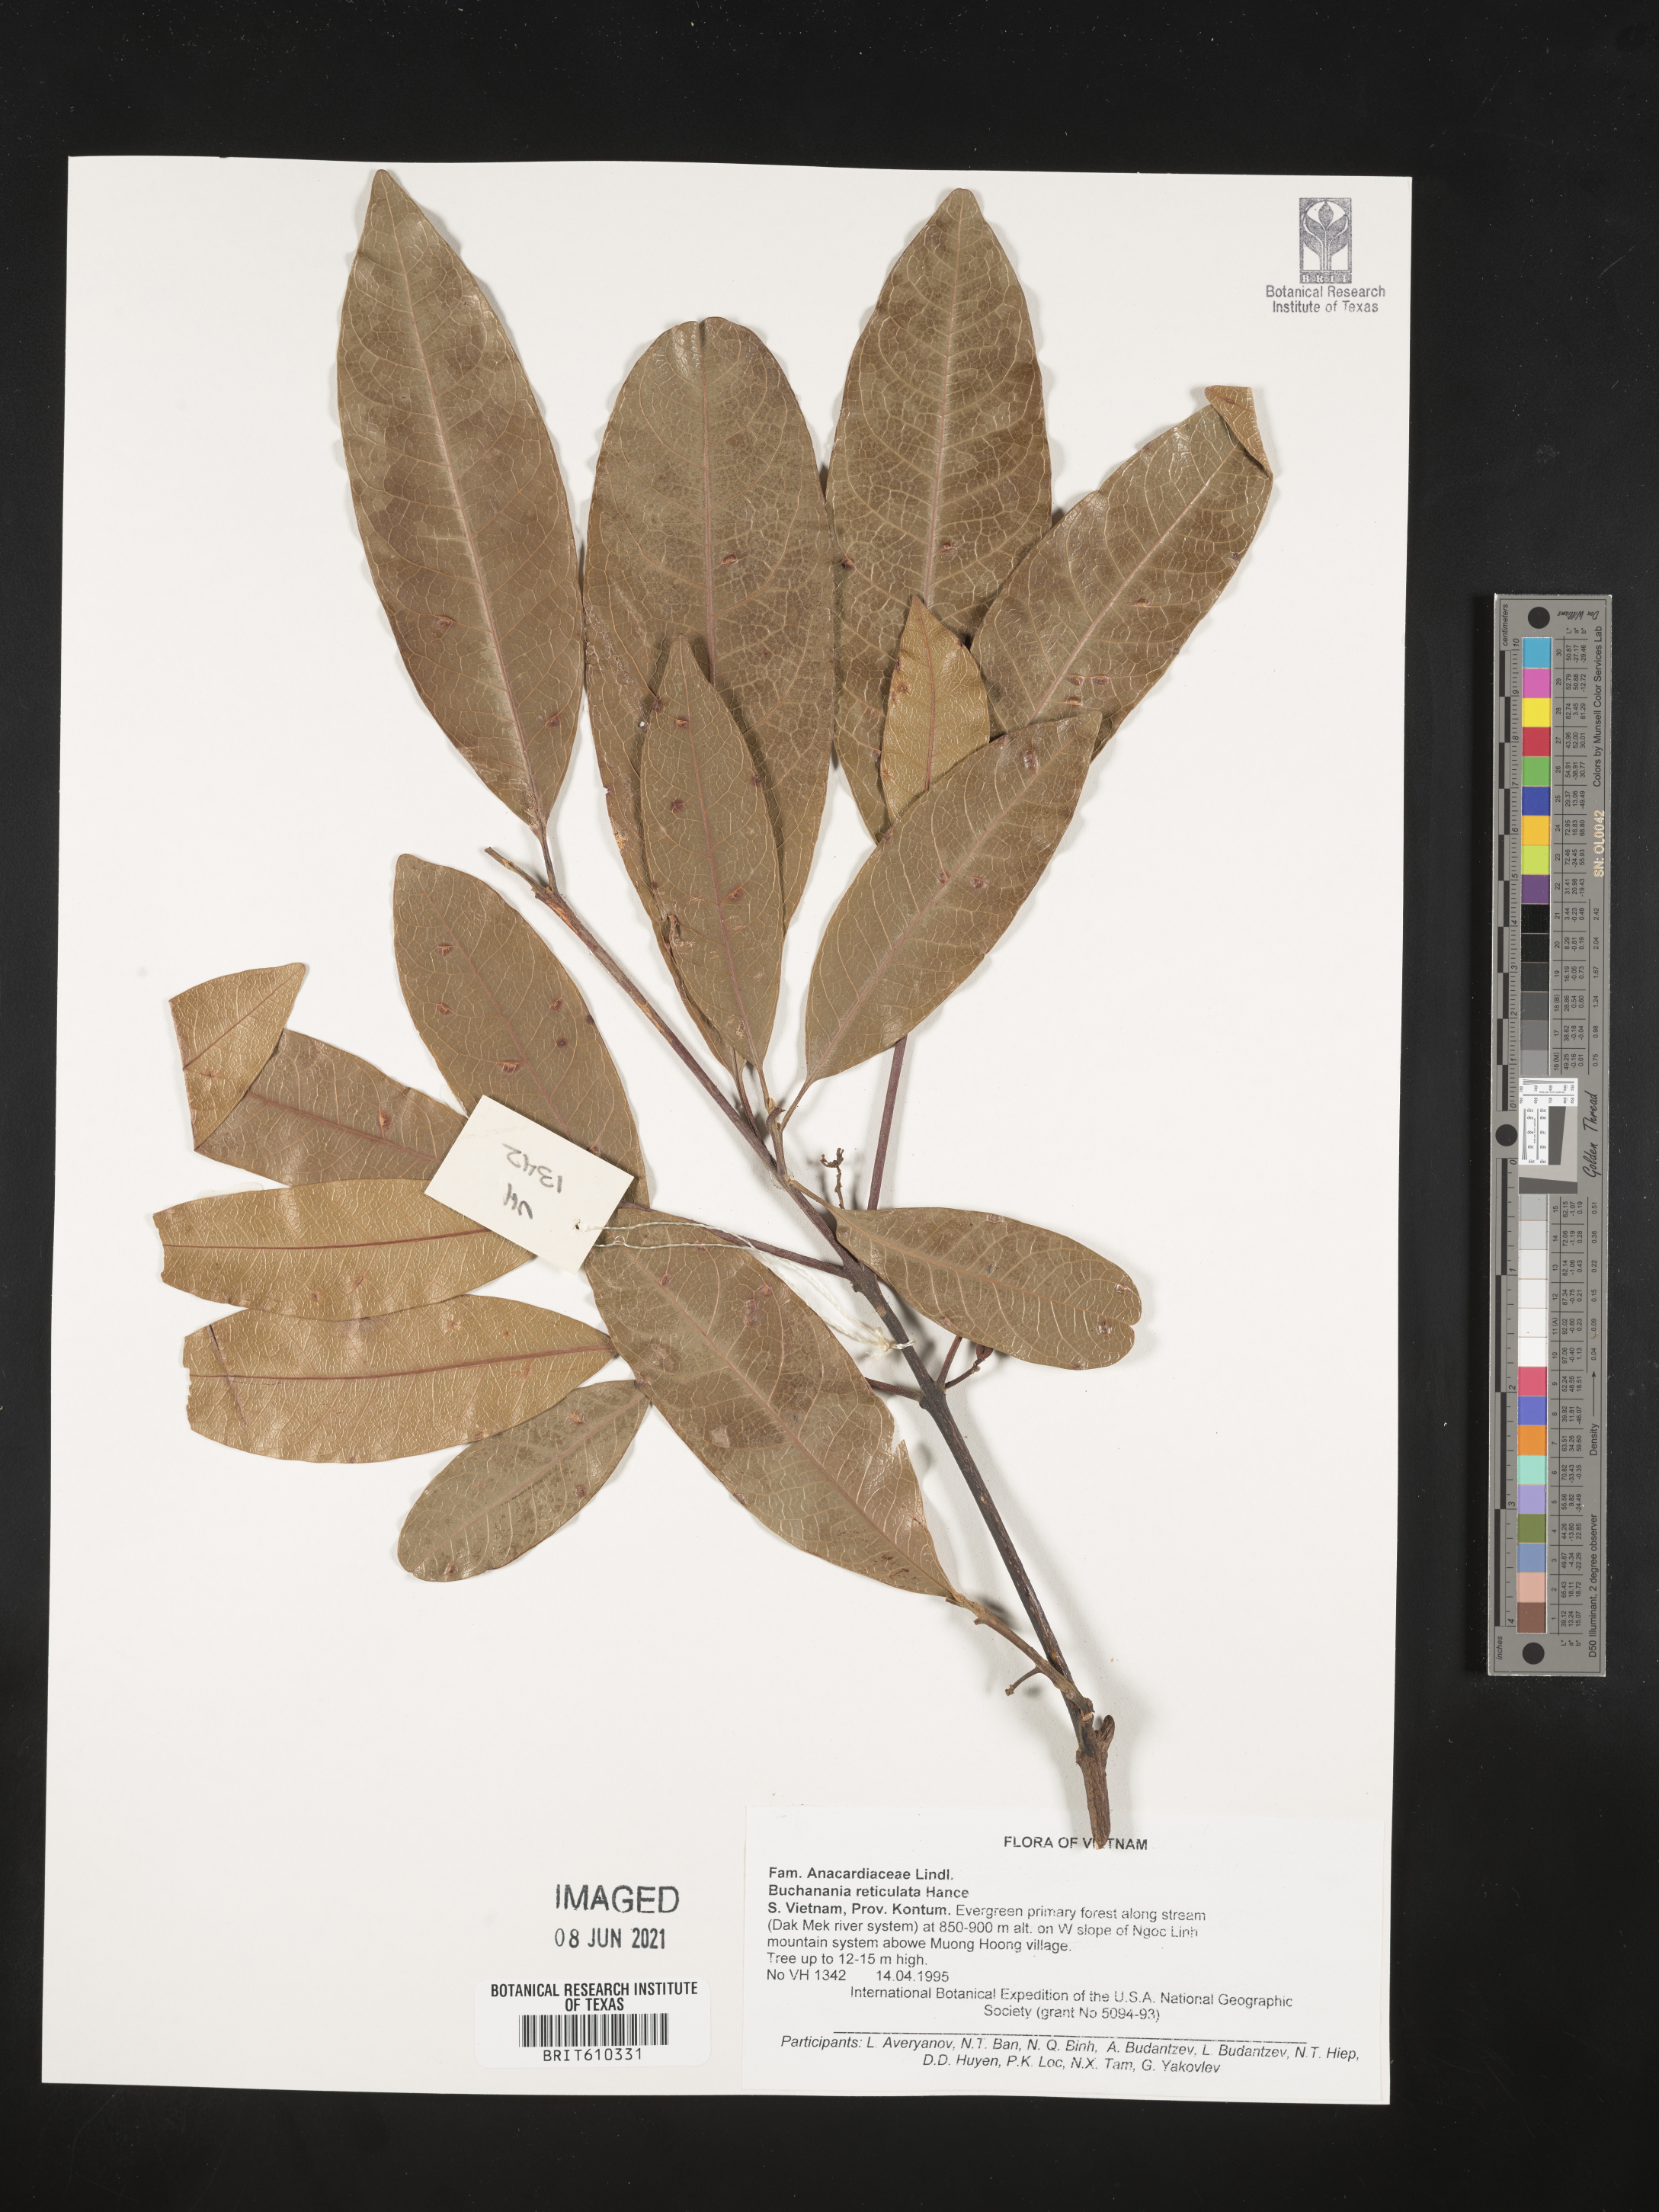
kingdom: Plantae
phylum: Tracheophyta
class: Magnoliopsida
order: Sapindales
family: Anacardiaceae
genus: Buchanania
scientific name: Buchanania reticulata
